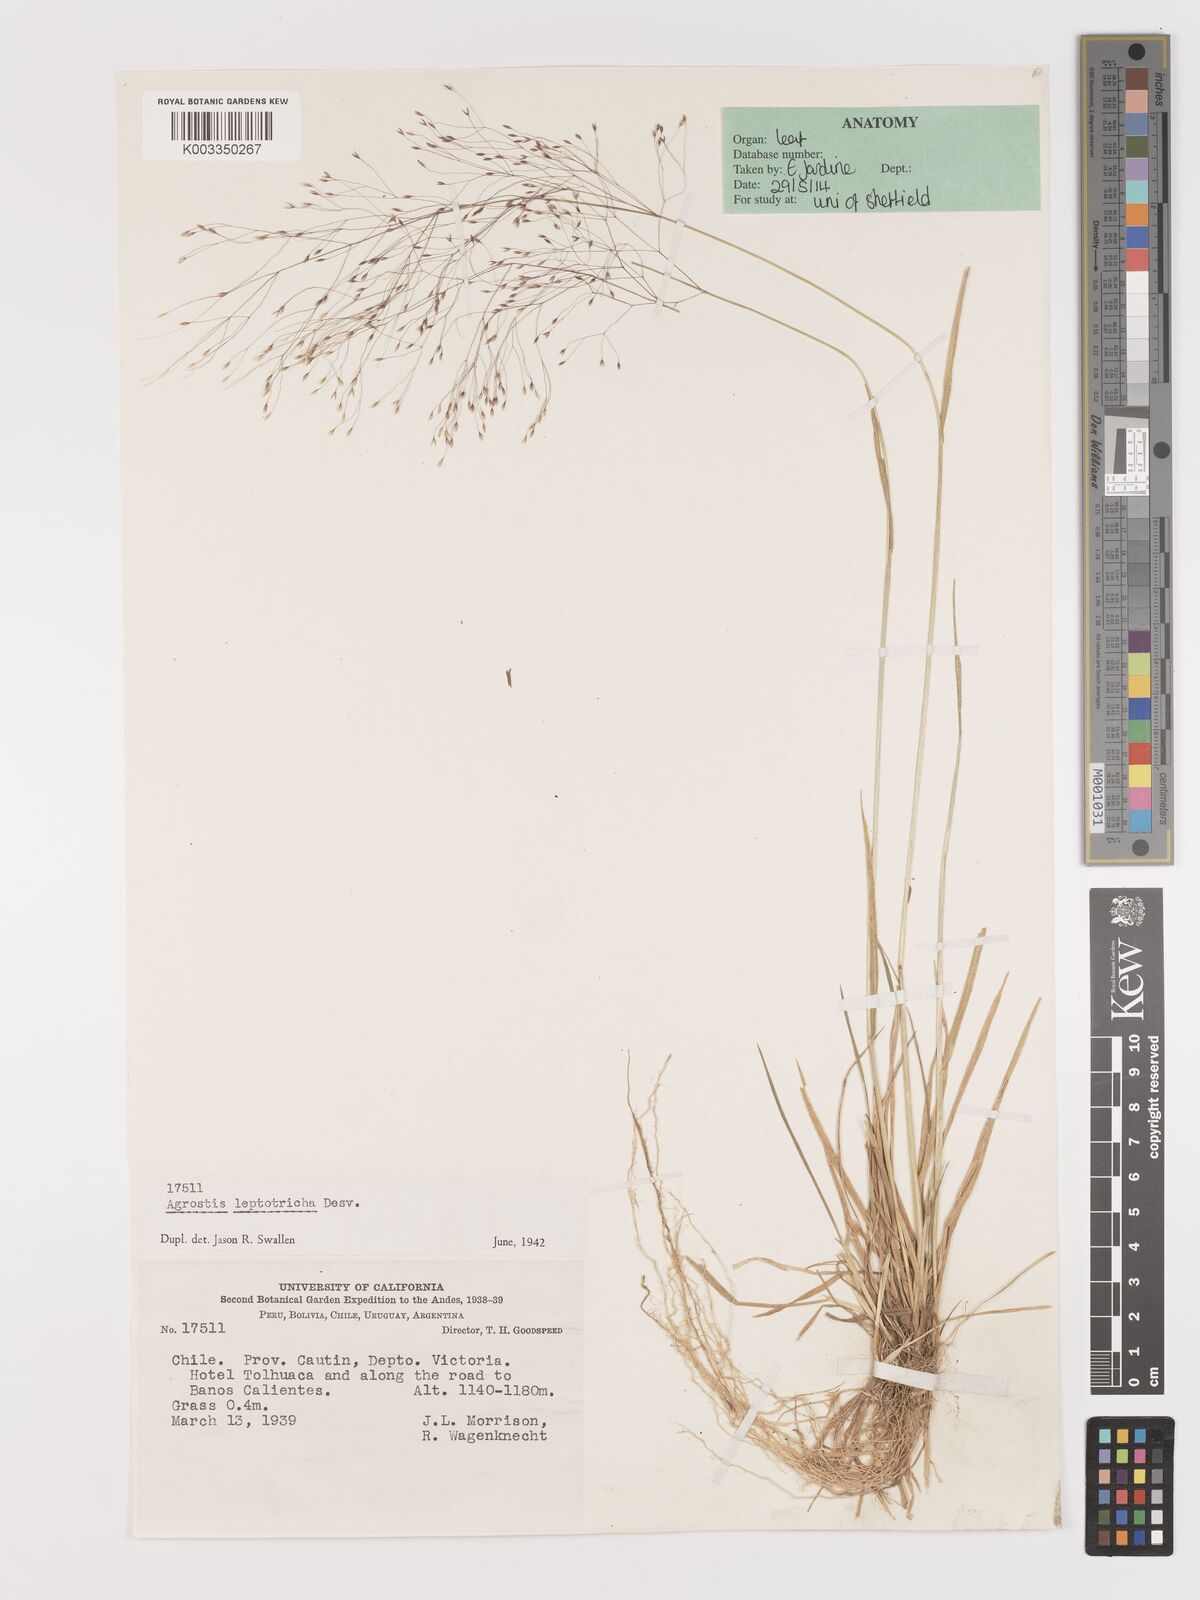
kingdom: Plantae
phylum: Tracheophyta
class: Liliopsida
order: Poales
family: Poaceae
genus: Agrostis
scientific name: Agrostis leptotricha
